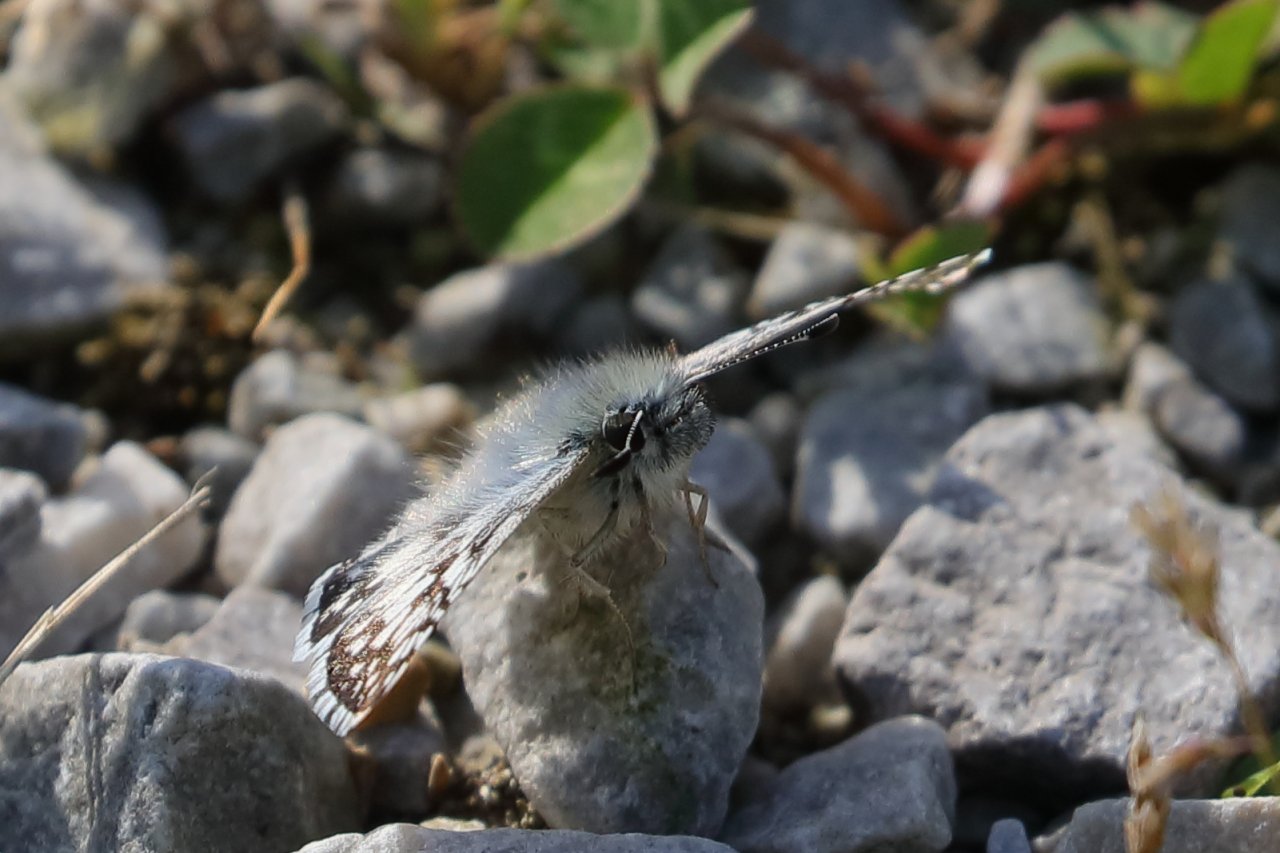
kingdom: Animalia
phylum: Arthropoda
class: Insecta
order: Lepidoptera
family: Hesperiidae
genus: Pyrgus
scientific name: Pyrgus communis
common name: Common Checkered-Skipper
